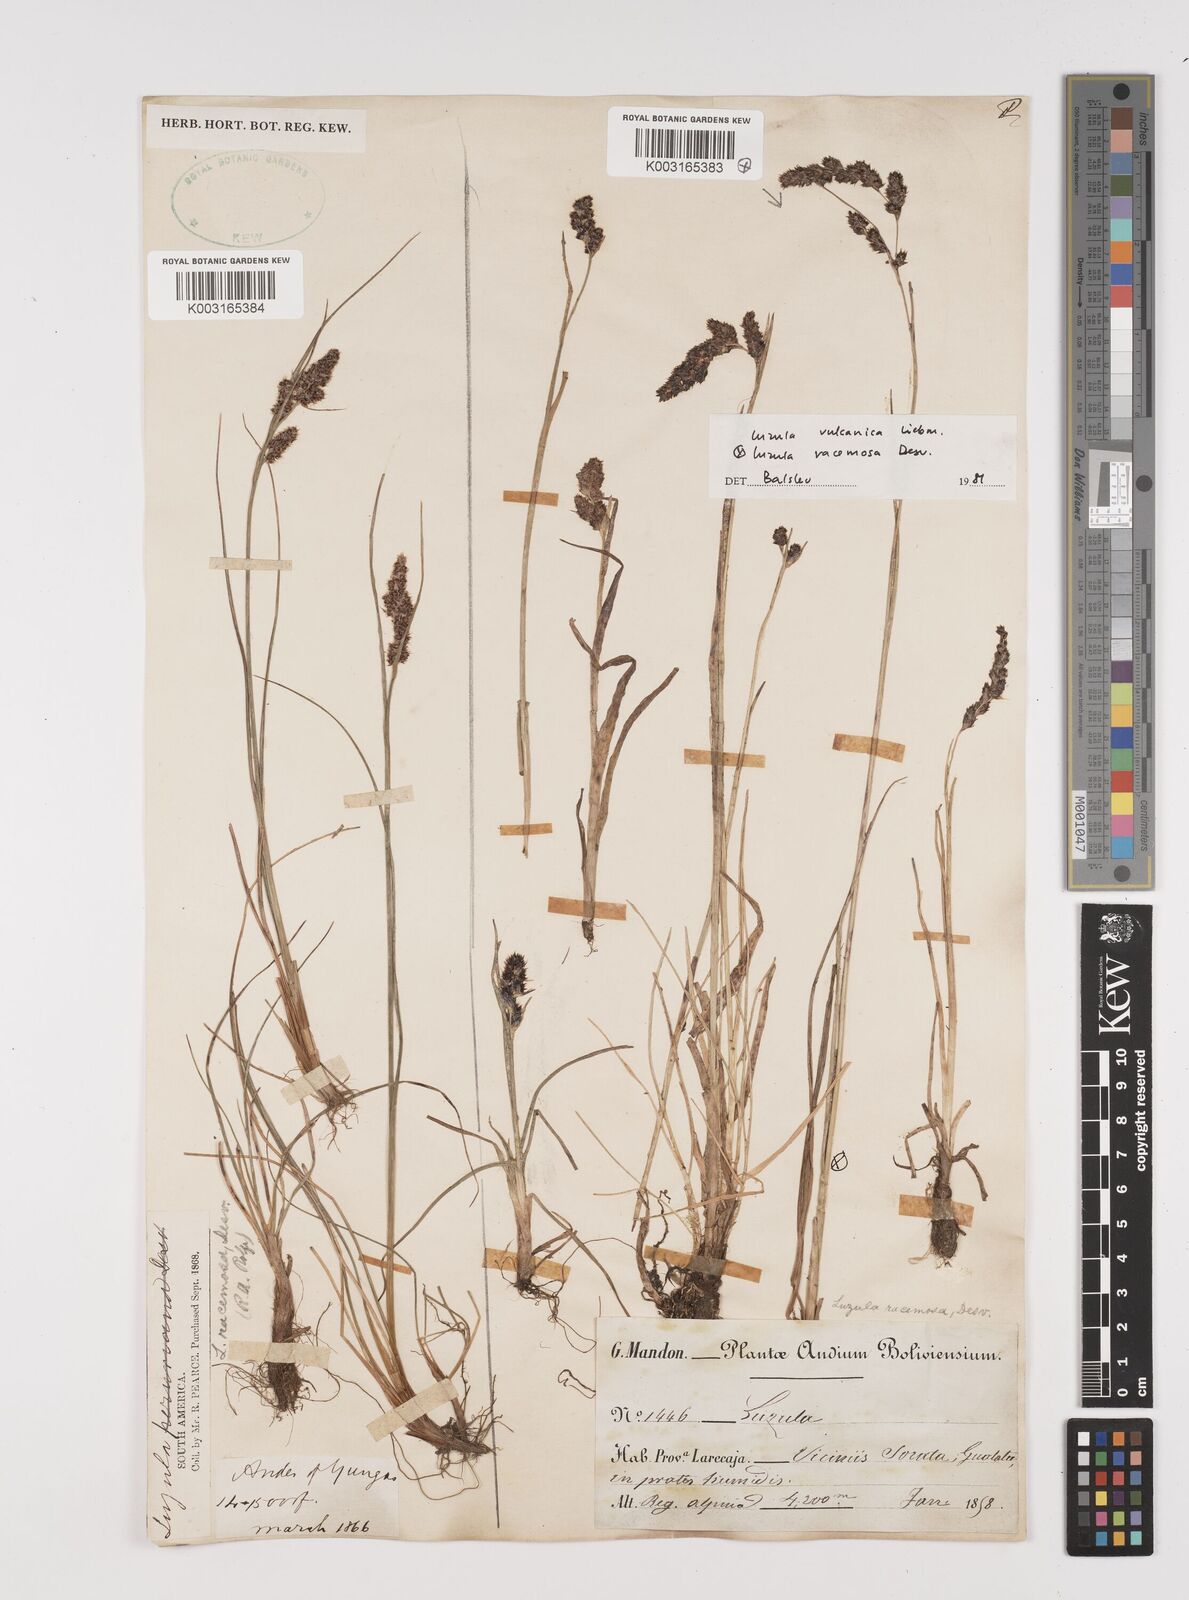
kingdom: Plantae
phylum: Tracheophyta
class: Liliopsida
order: Poales
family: Juncaceae
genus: Luzula
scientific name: Luzula vulcanica
